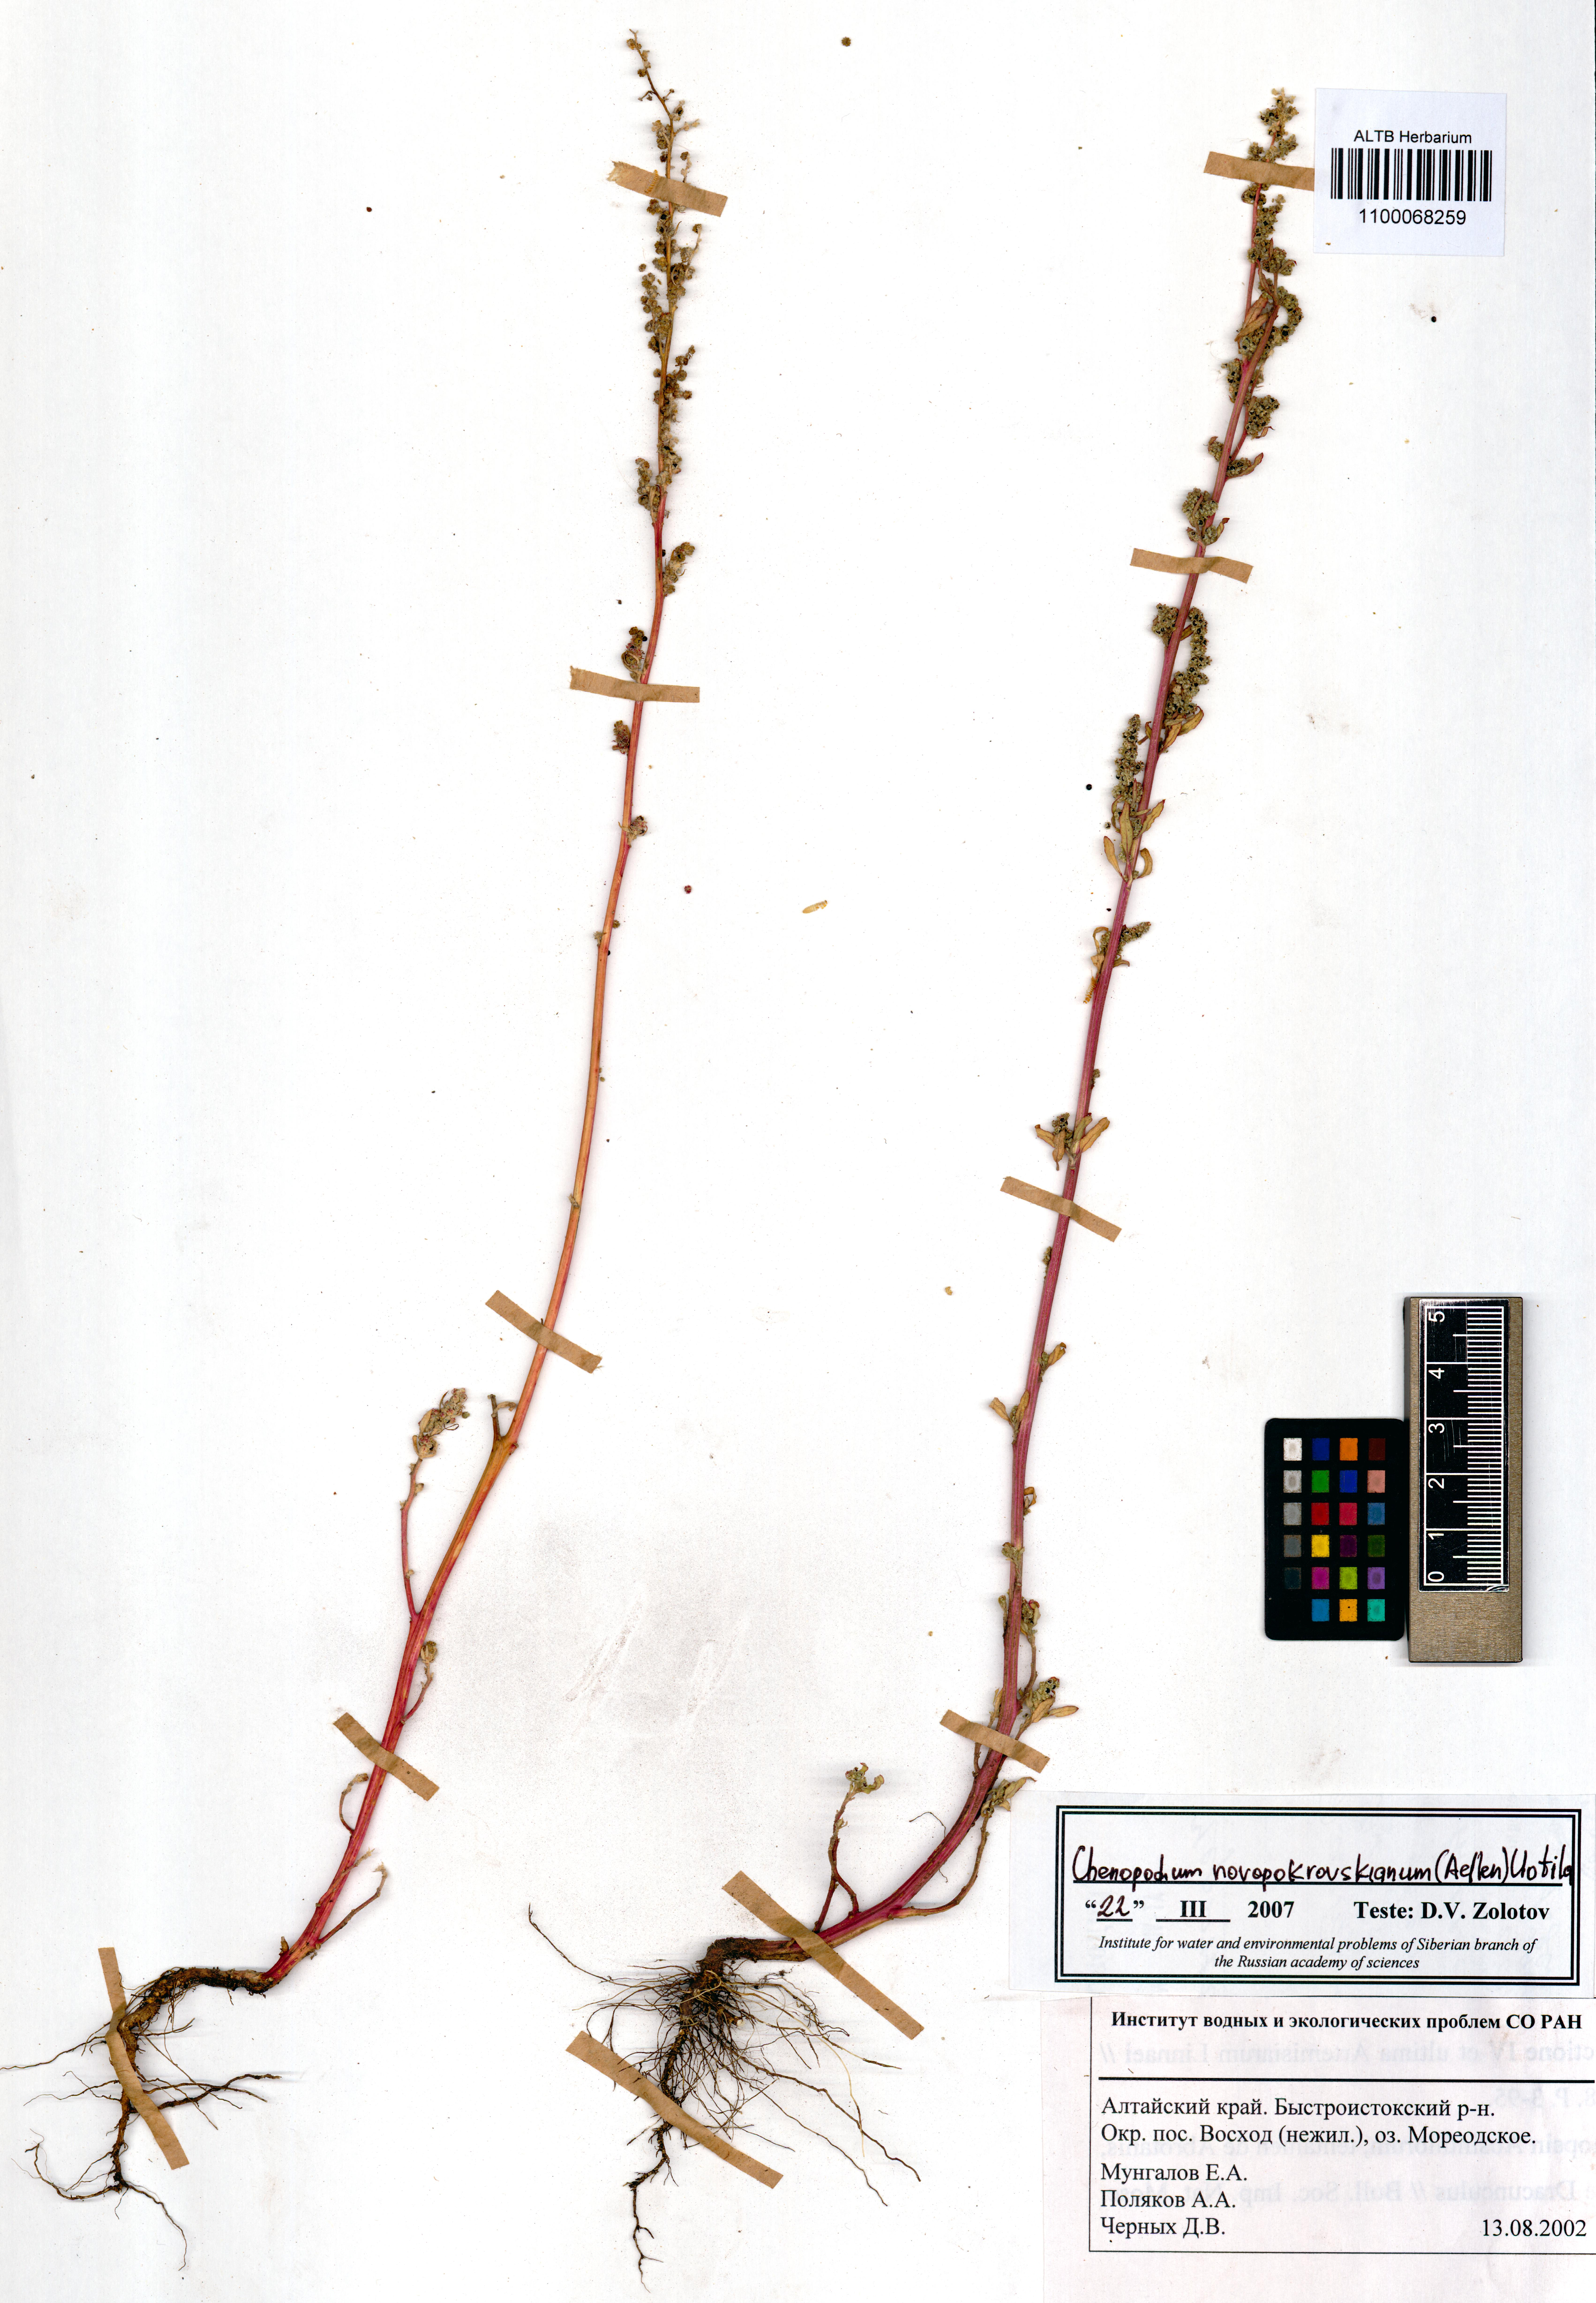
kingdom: Plantae
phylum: Tracheophyta
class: Magnoliopsida
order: Caryophyllales
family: Amaranthaceae
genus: Chenopodium
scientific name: Chenopodium novopokrovskyanum
